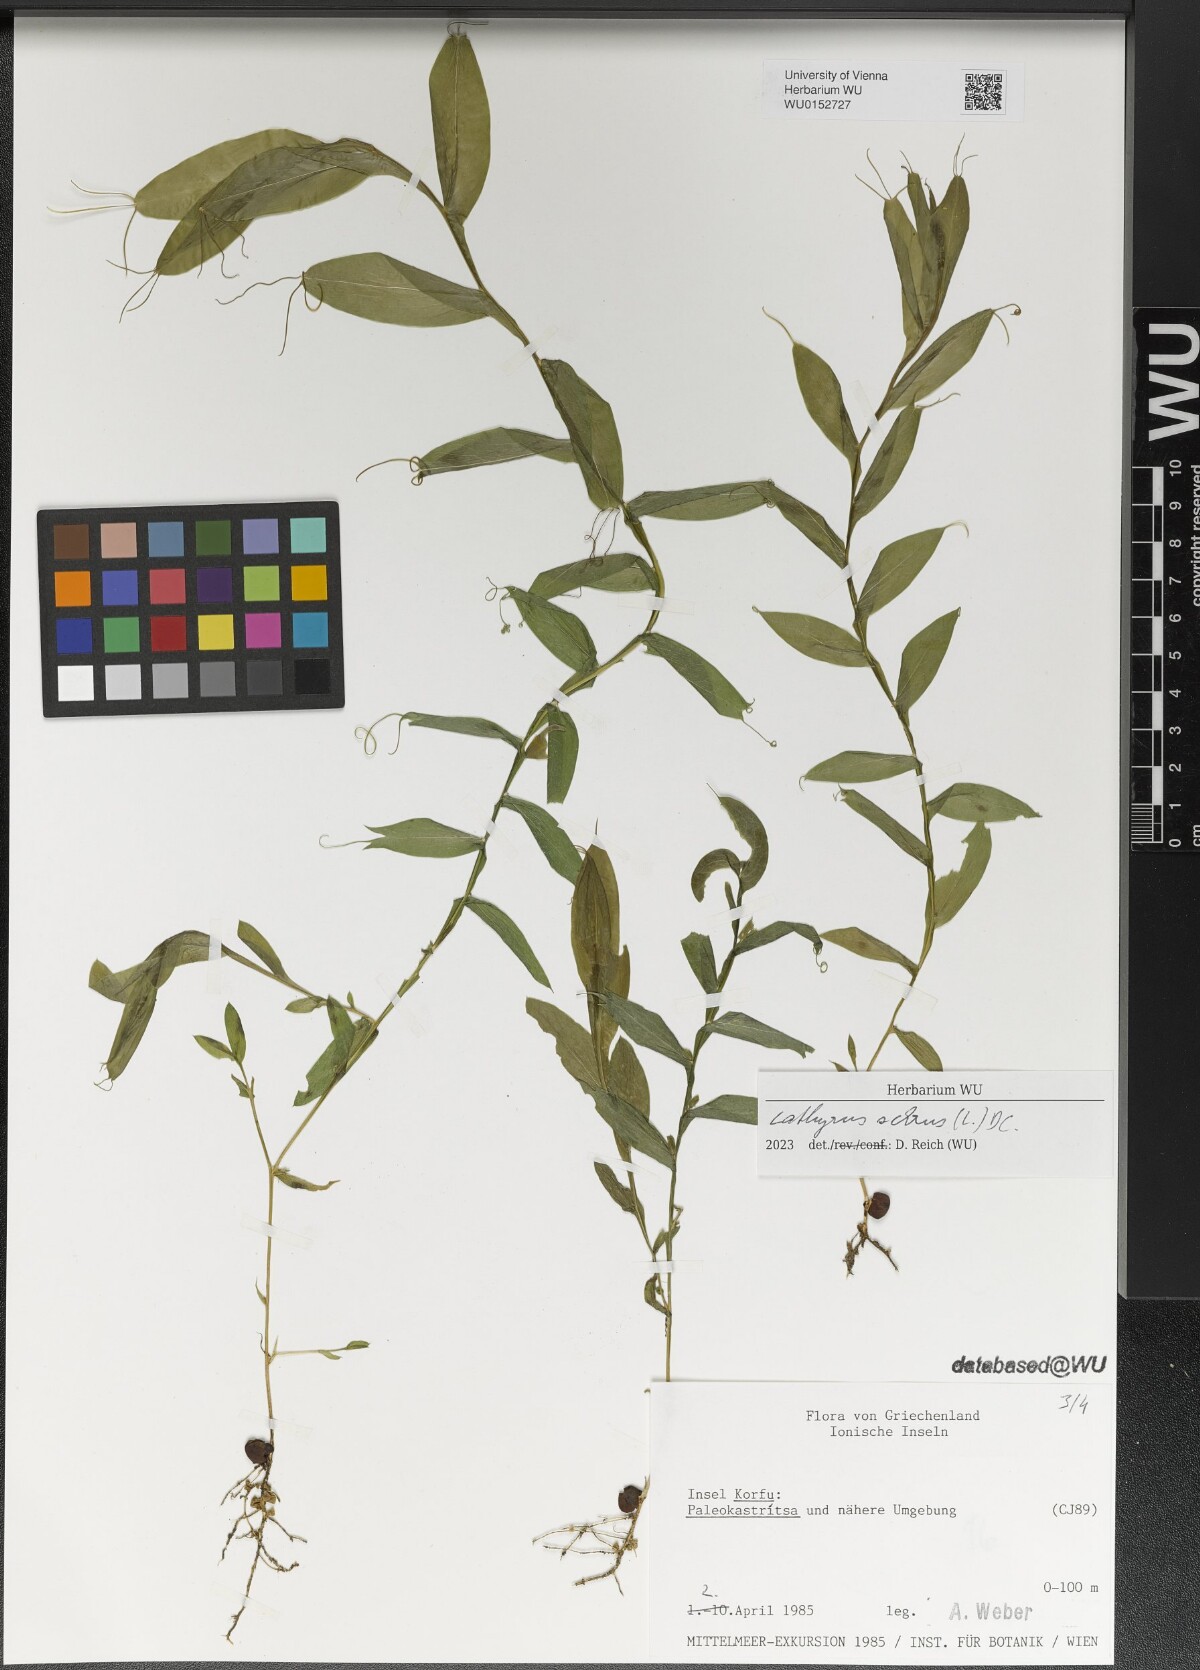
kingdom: Plantae
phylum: Tracheophyta
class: Magnoliopsida
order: Fabales
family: Fabaceae
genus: Lathyrus
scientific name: Lathyrus ochrus
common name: Winged vetchling
